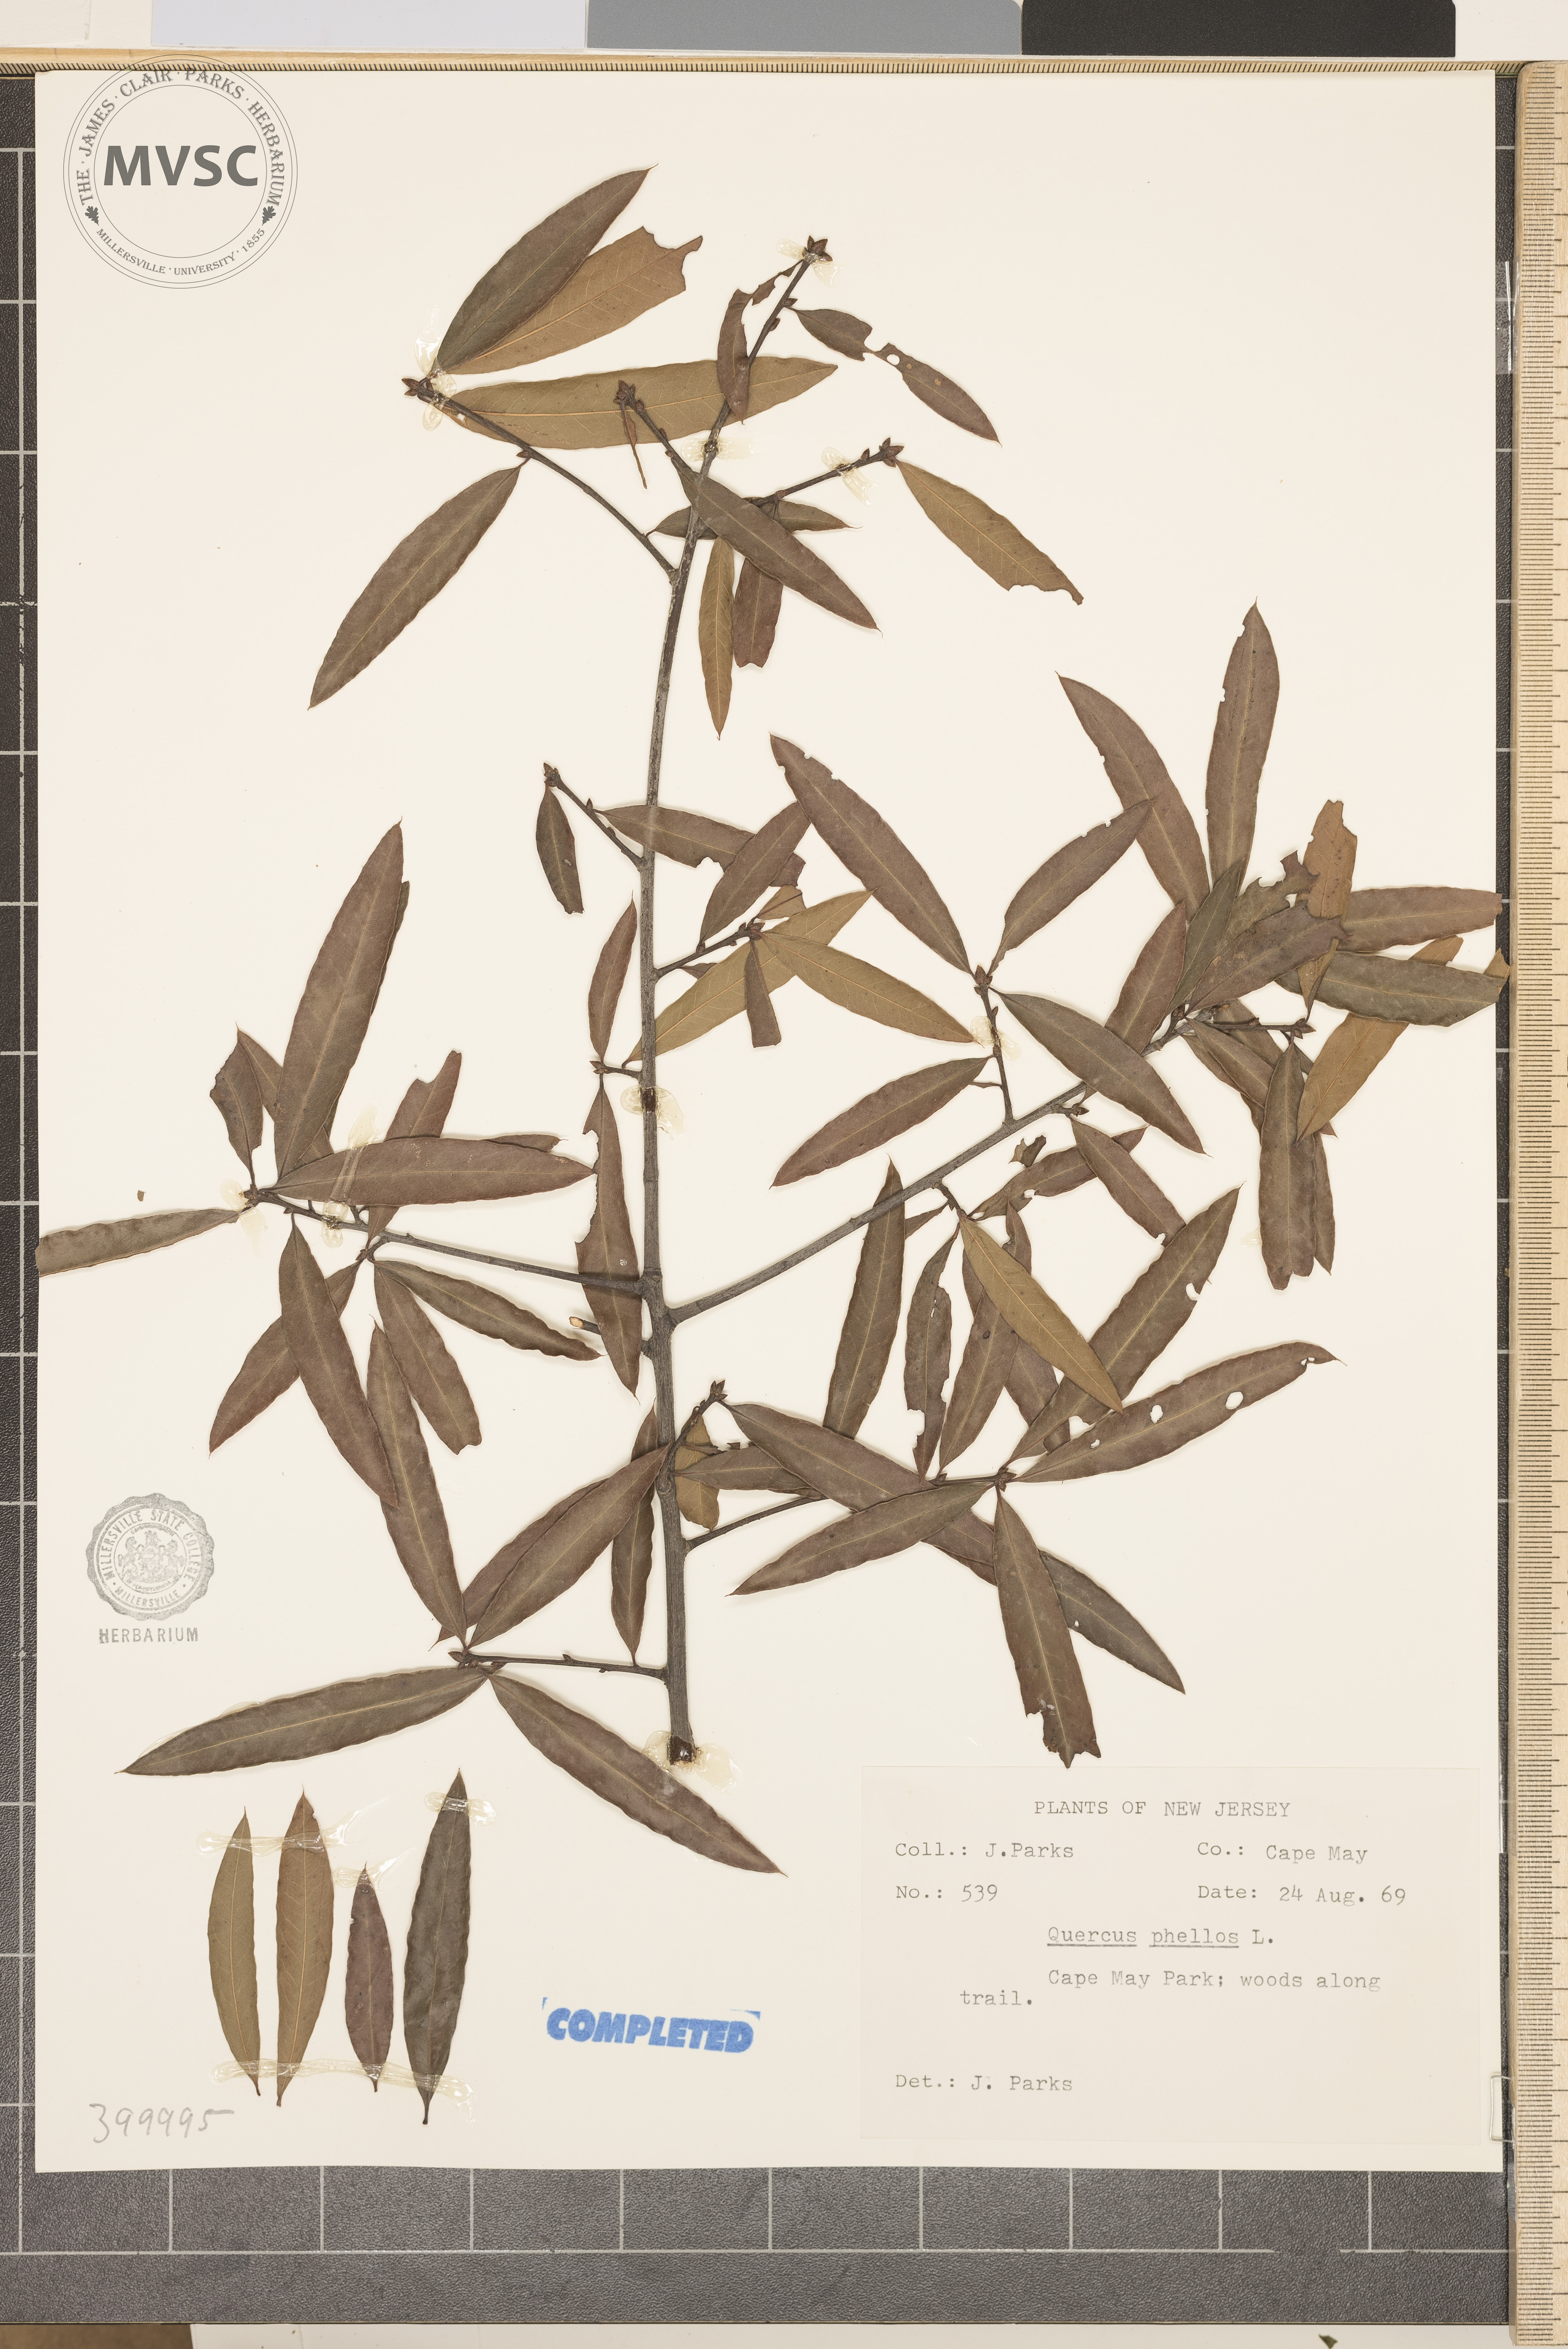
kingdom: Plantae
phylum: Tracheophyta
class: Magnoliopsida
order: Fagales
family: Fagaceae
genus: Quercus
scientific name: Quercus phellos
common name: willow oak
